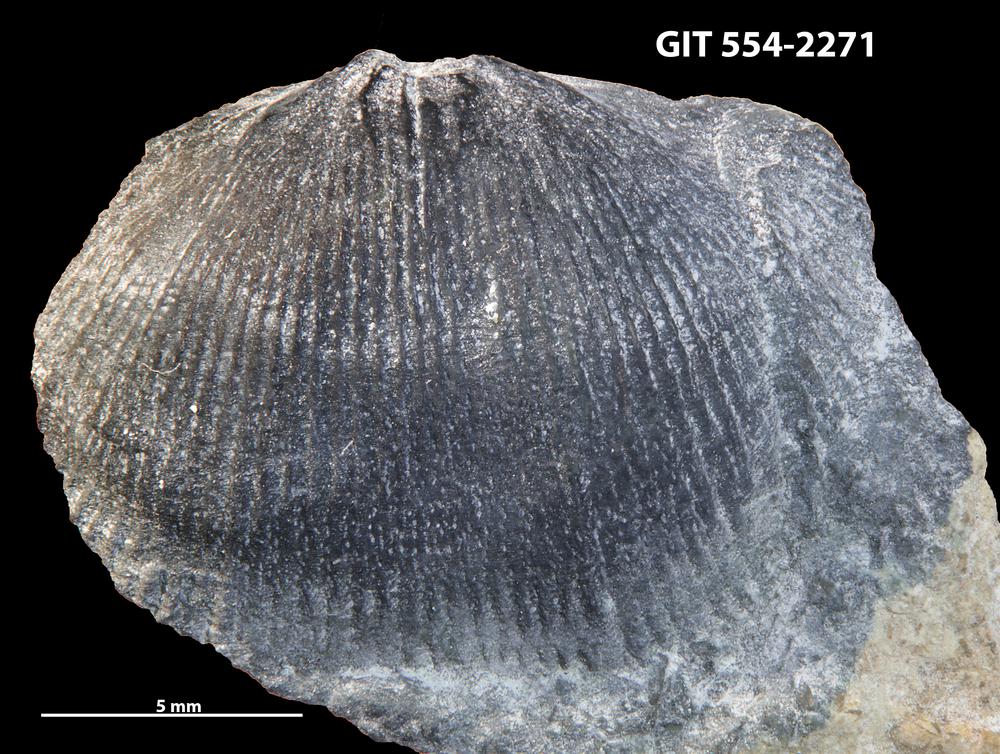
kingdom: Animalia
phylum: Brachiopoda
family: Strophochonetidae
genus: Protochonetes
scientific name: Protochonetes Orthis striatella
